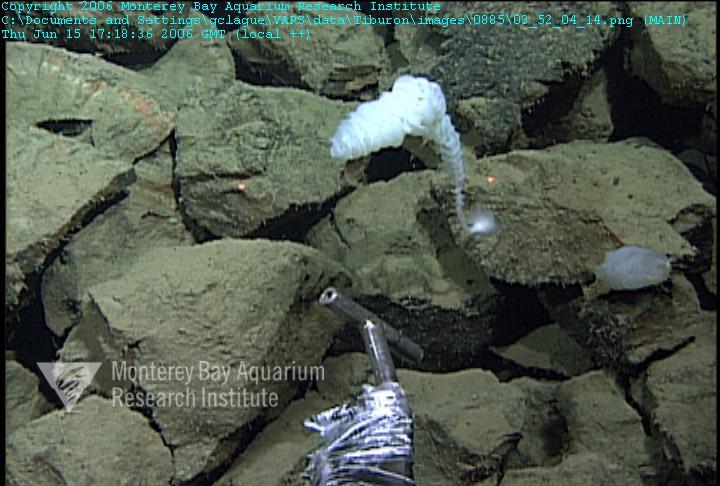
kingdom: Animalia
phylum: Porifera
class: Hexactinellida
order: Sceptrulophora
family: Farreidae
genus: Farrea
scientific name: Farrea truncata
